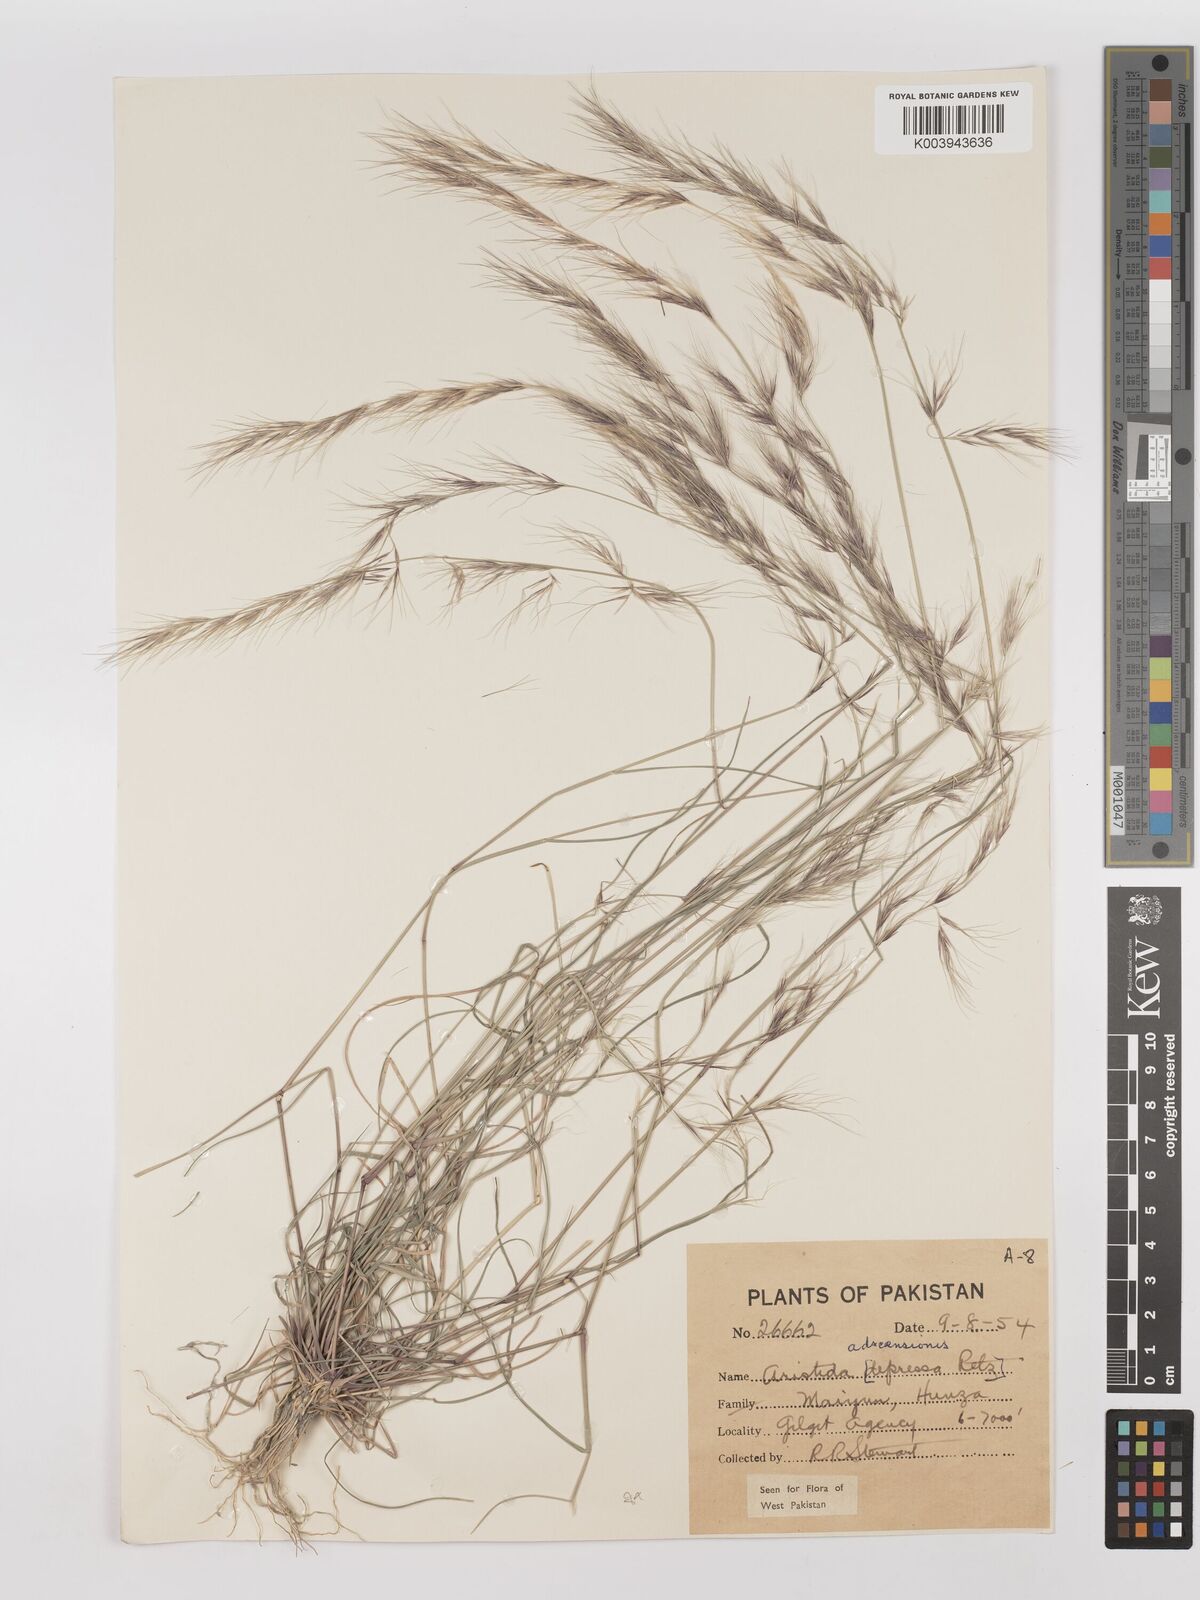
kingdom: Plantae
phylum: Tracheophyta
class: Liliopsida
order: Poales
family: Poaceae
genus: Aristida
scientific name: Aristida adscensionis
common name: Sixweeks threeawn
